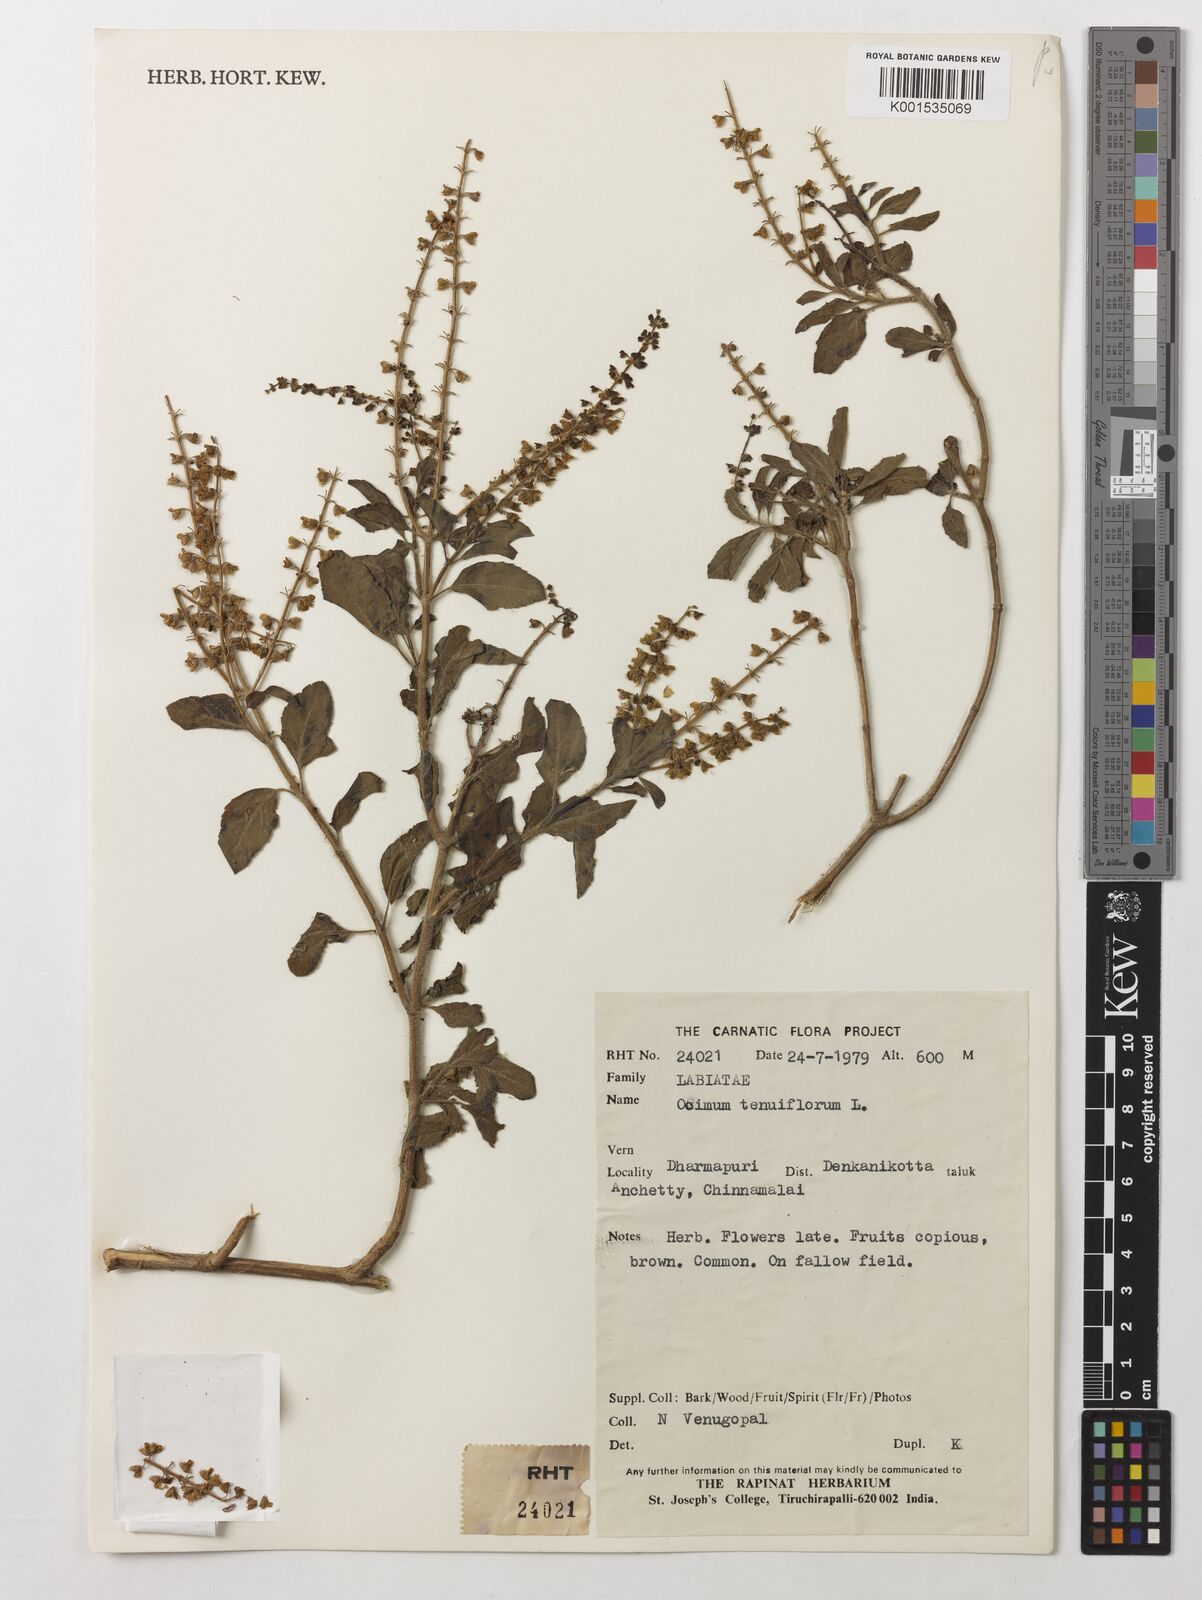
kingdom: Plantae
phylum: Tracheophyta
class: Magnoliopsida
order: Lamiales
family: Lamiaceae
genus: Ocimum
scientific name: Ocimum tenuiflorum
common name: Sacred basil
